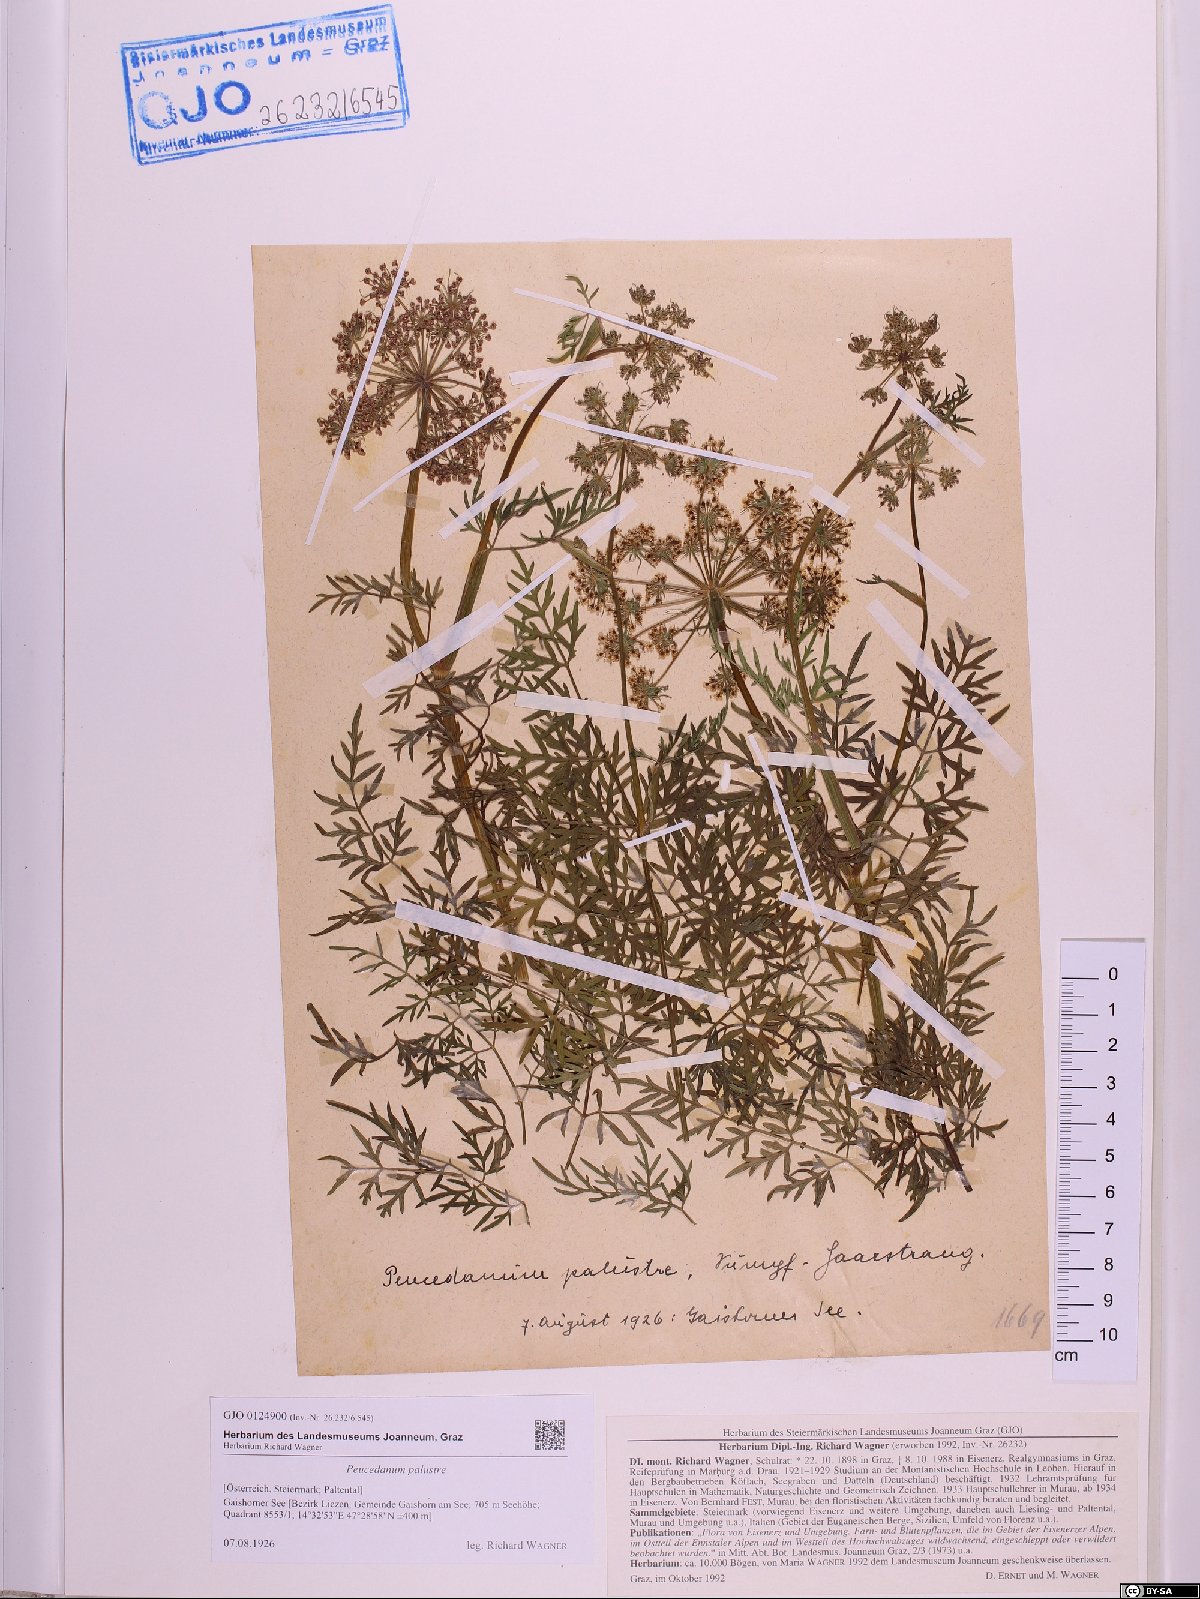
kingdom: Plantae
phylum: Tracheophyta
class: Magnoliopsida
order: Apiales
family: Apiaceae
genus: Thysselinum
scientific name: Thysselinum palustre
